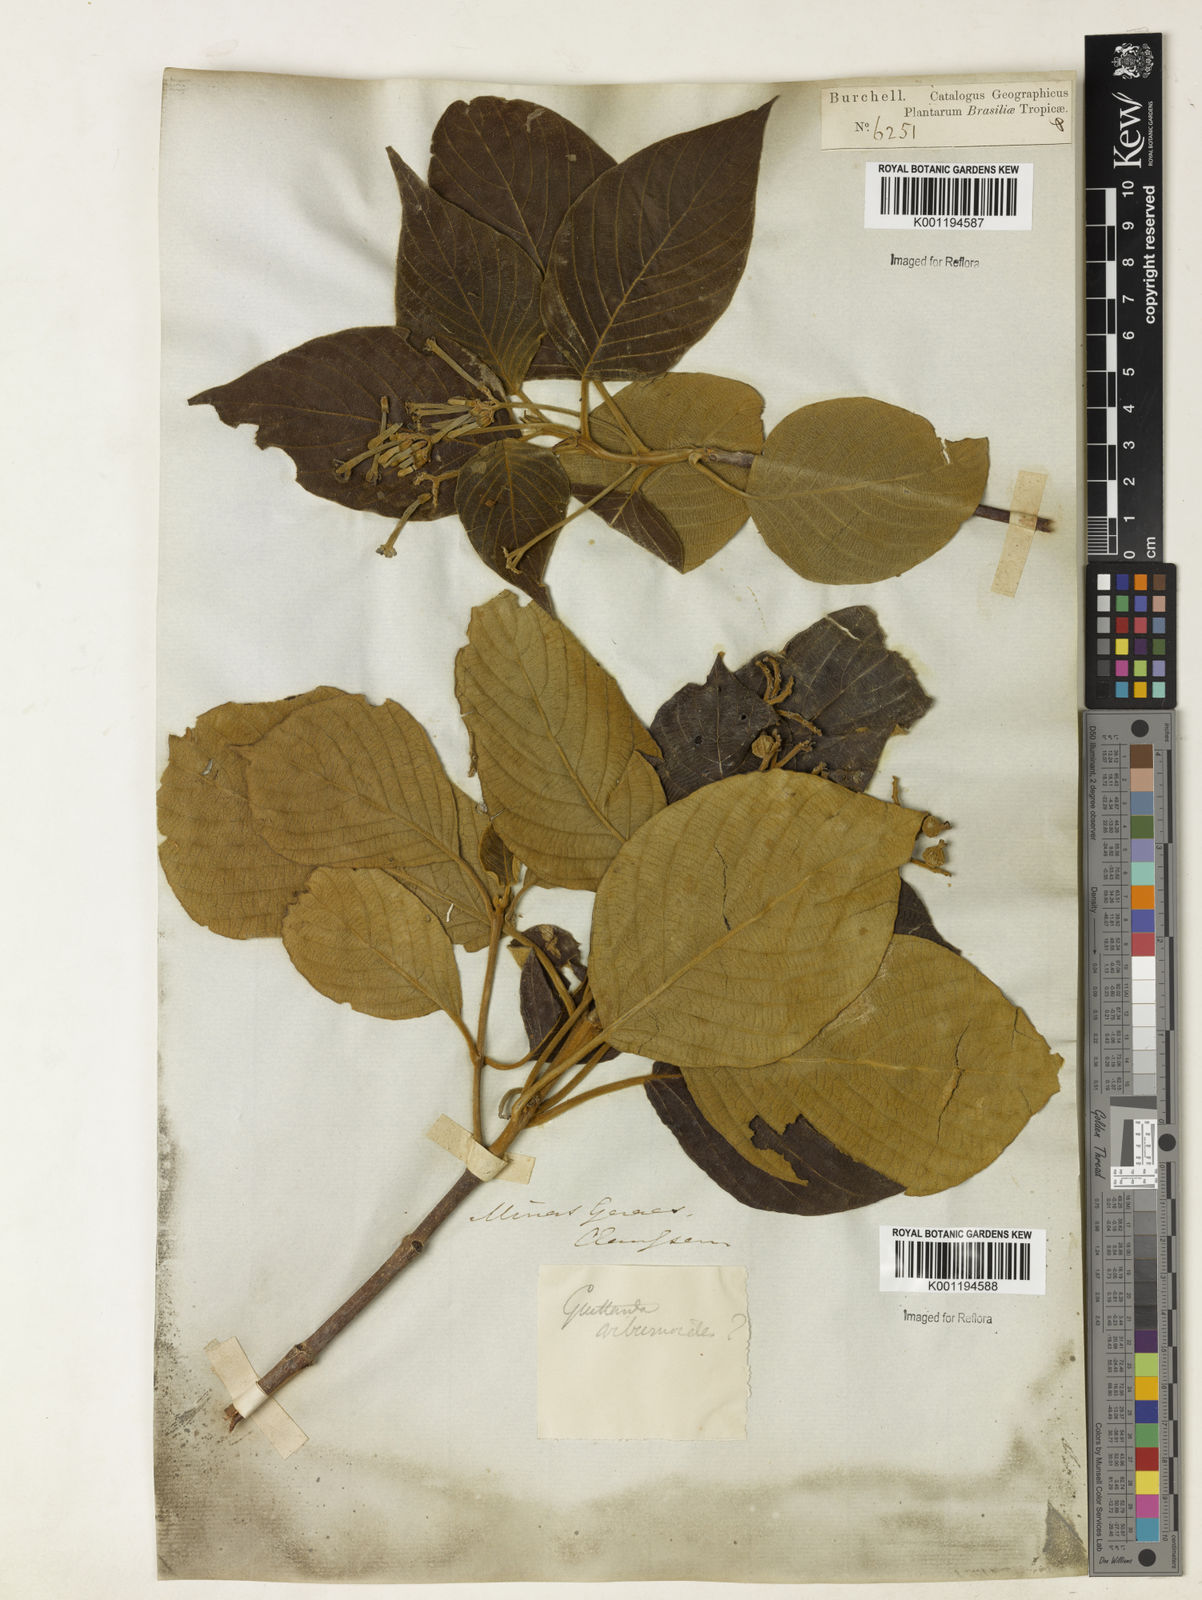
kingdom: Plantae
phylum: Tracheophyta
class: Magnoliopsida
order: Gentianales
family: Rubiaceae
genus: Guettarda
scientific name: Guettarda viburnoides
